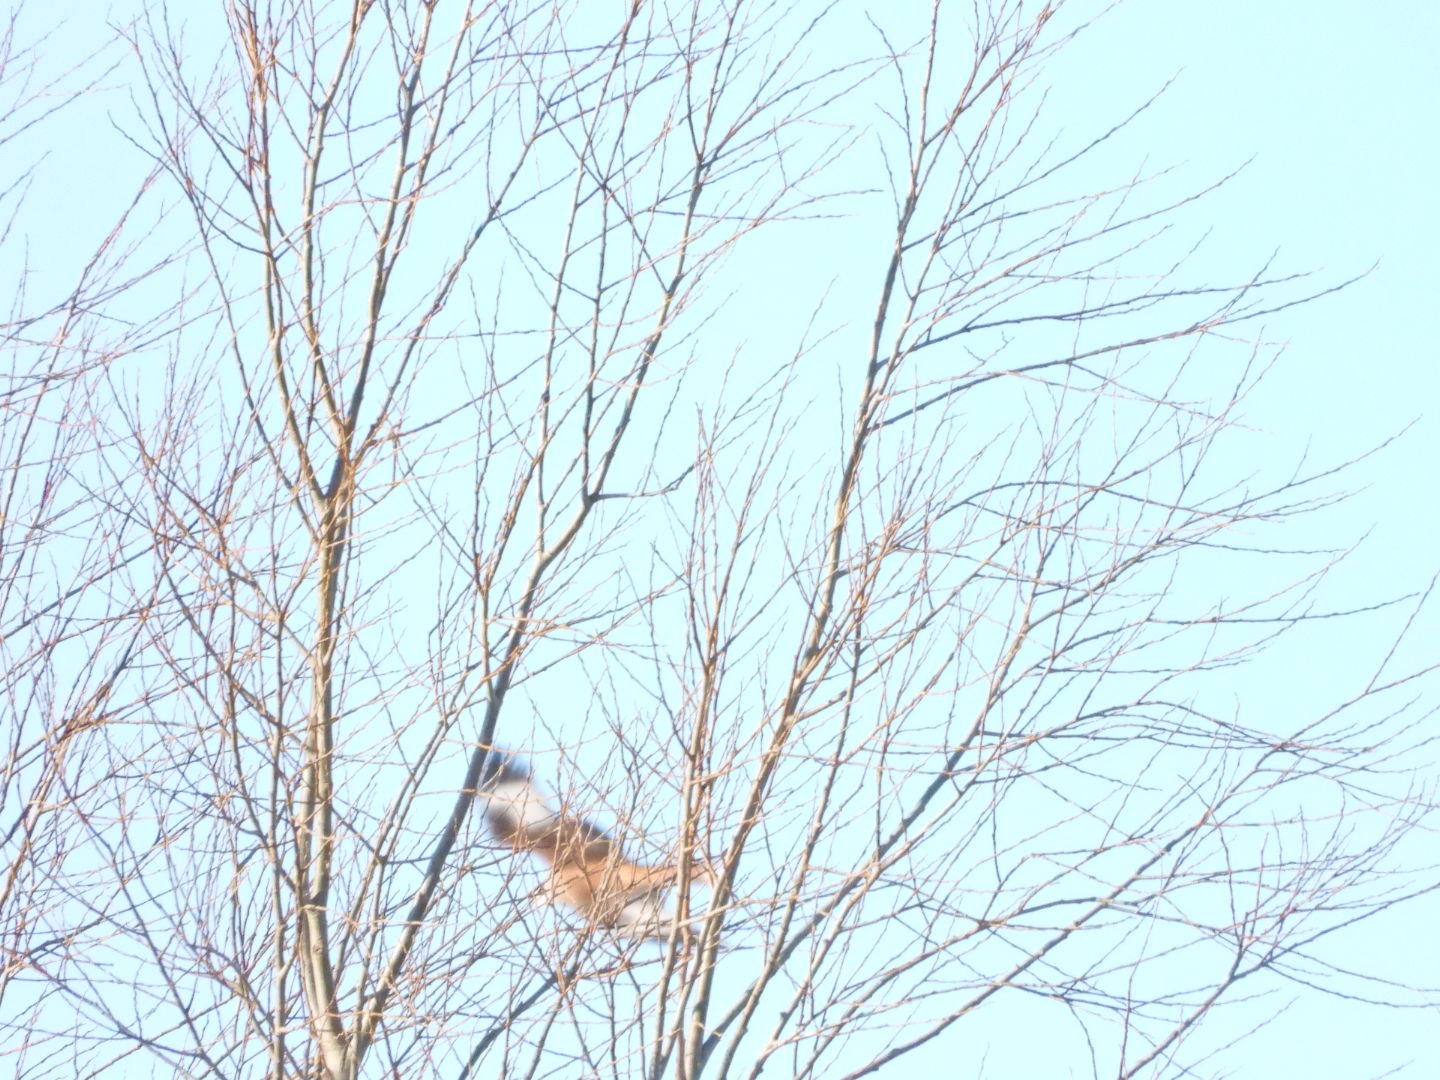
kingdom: Animalia
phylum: Chordata
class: Aves
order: Accipitriformes
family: Accipitridae
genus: Milvus
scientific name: Milvus milvus
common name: Rød glente
